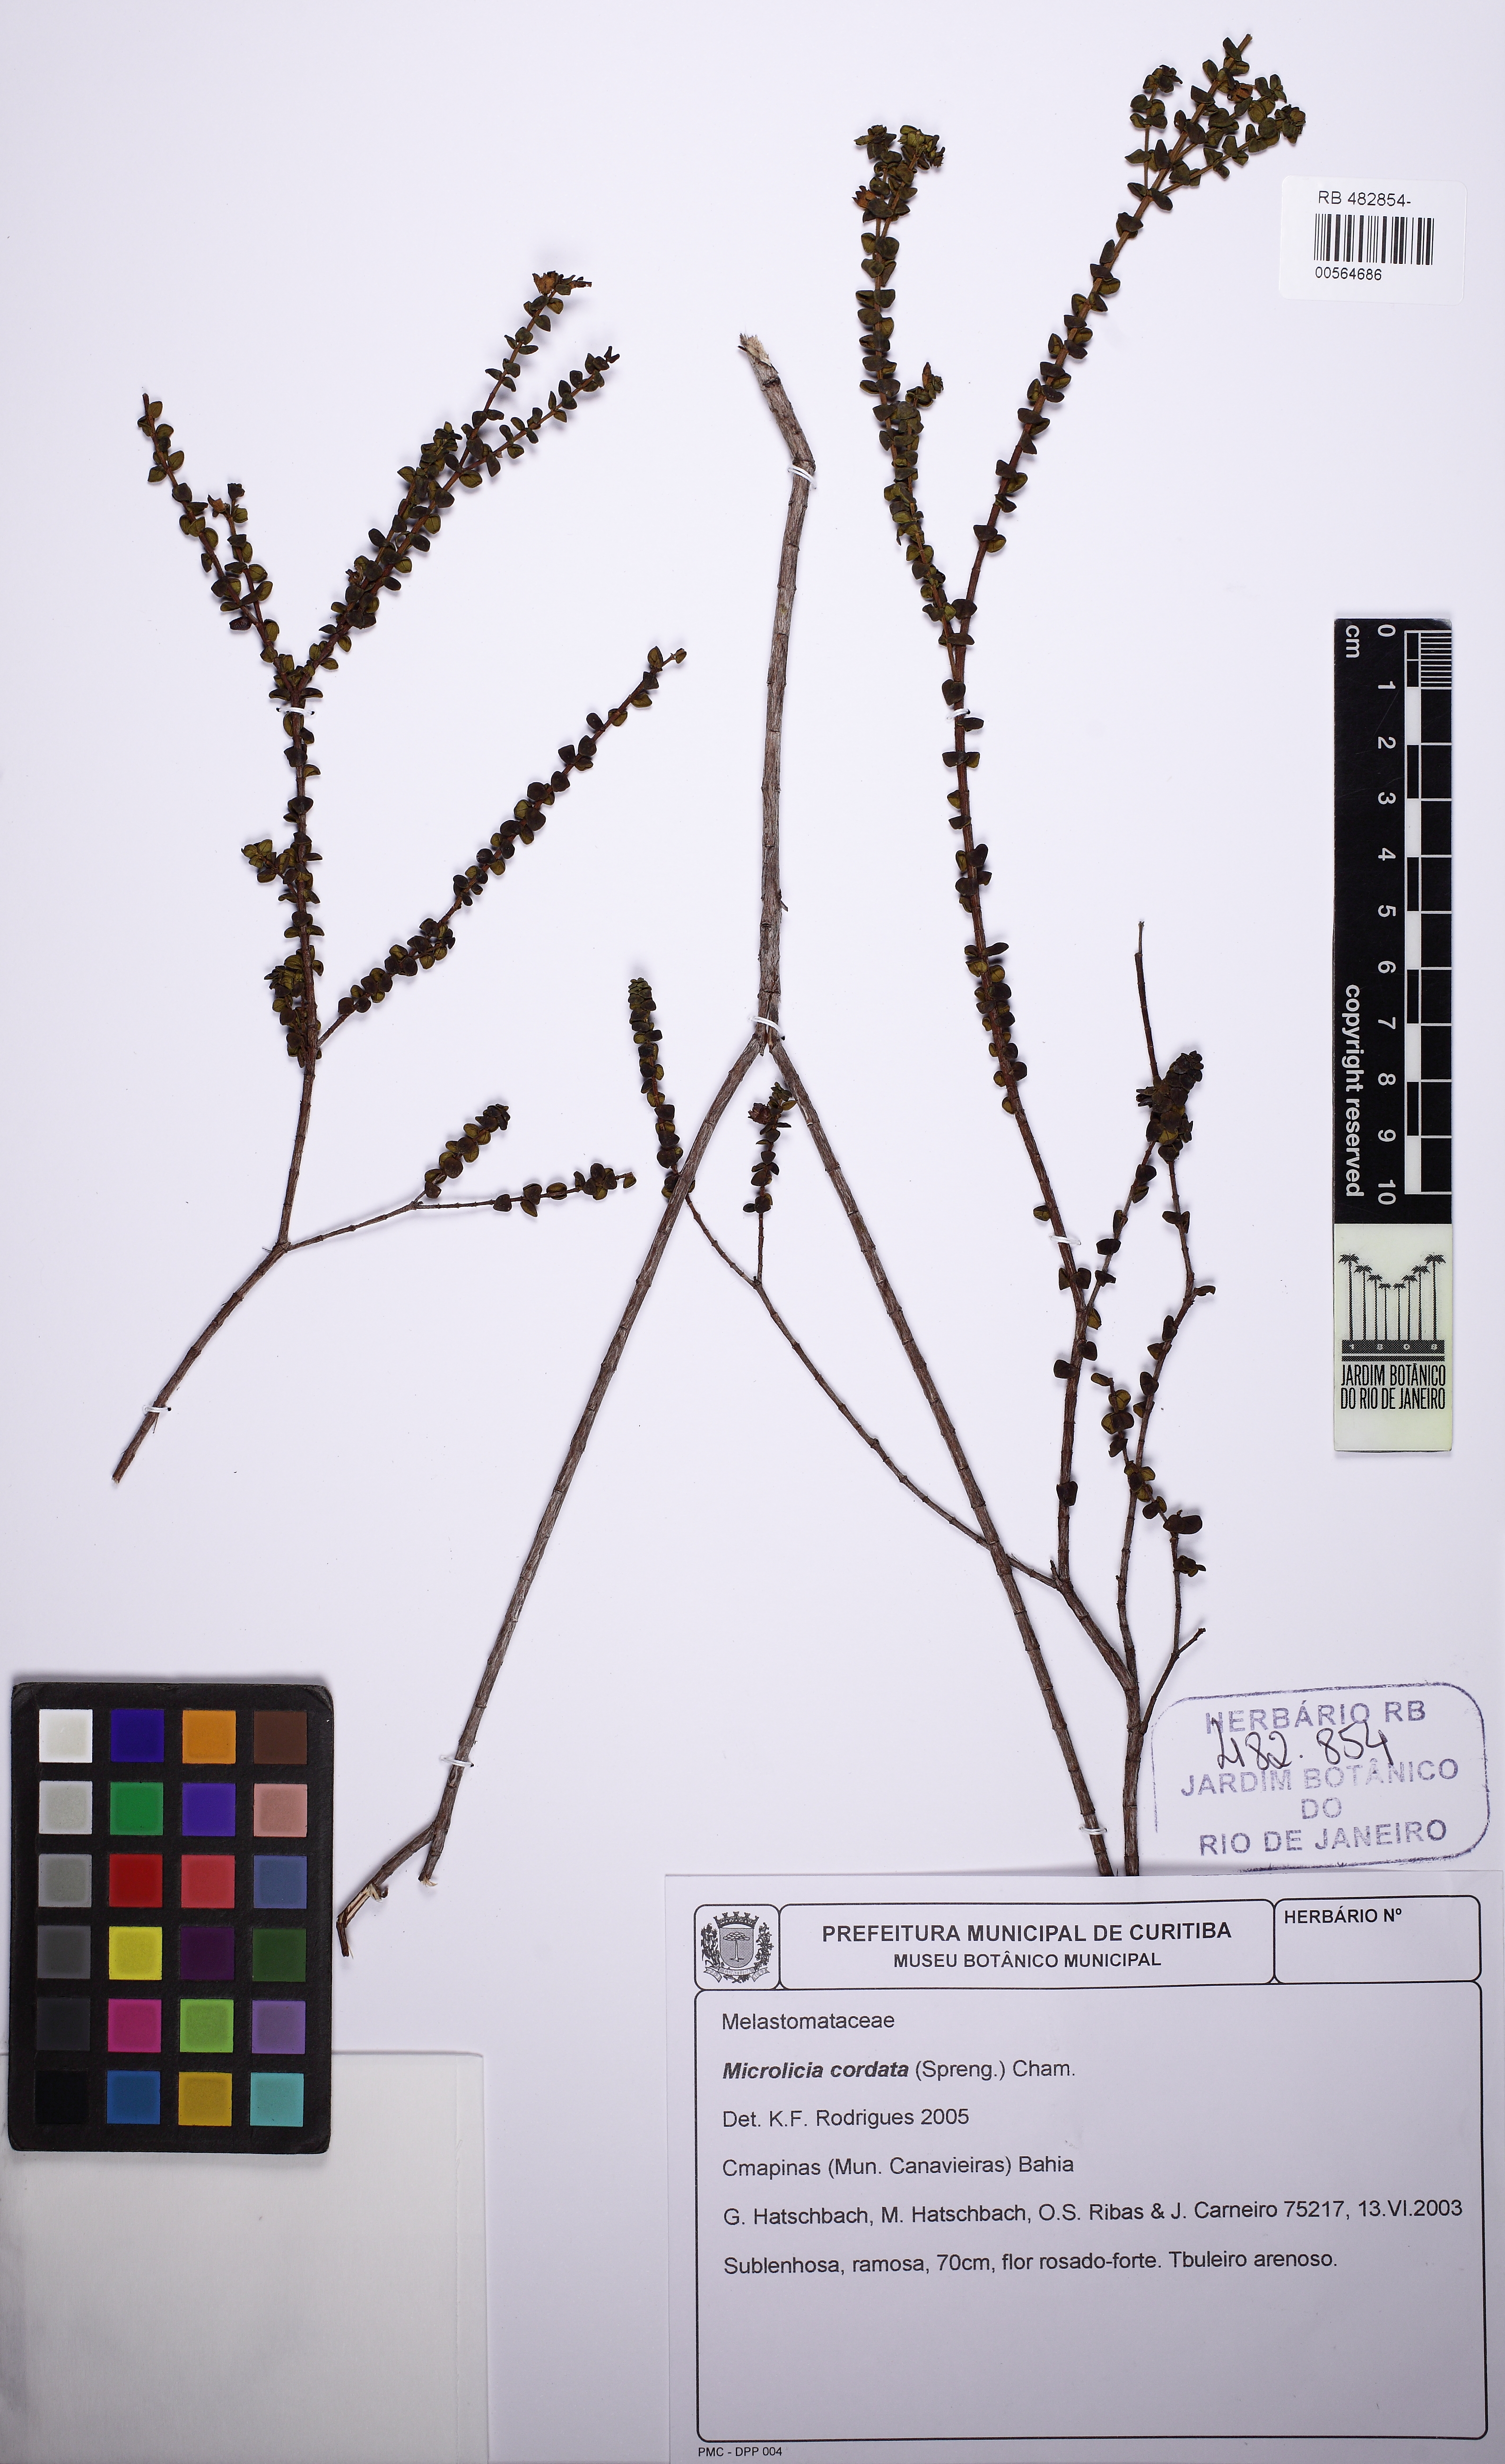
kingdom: Plantae
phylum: Tracheophyta
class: Magnoliopsida
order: Myrtales
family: Melastomataceae
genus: Microlicia
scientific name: Microlicia cordata
